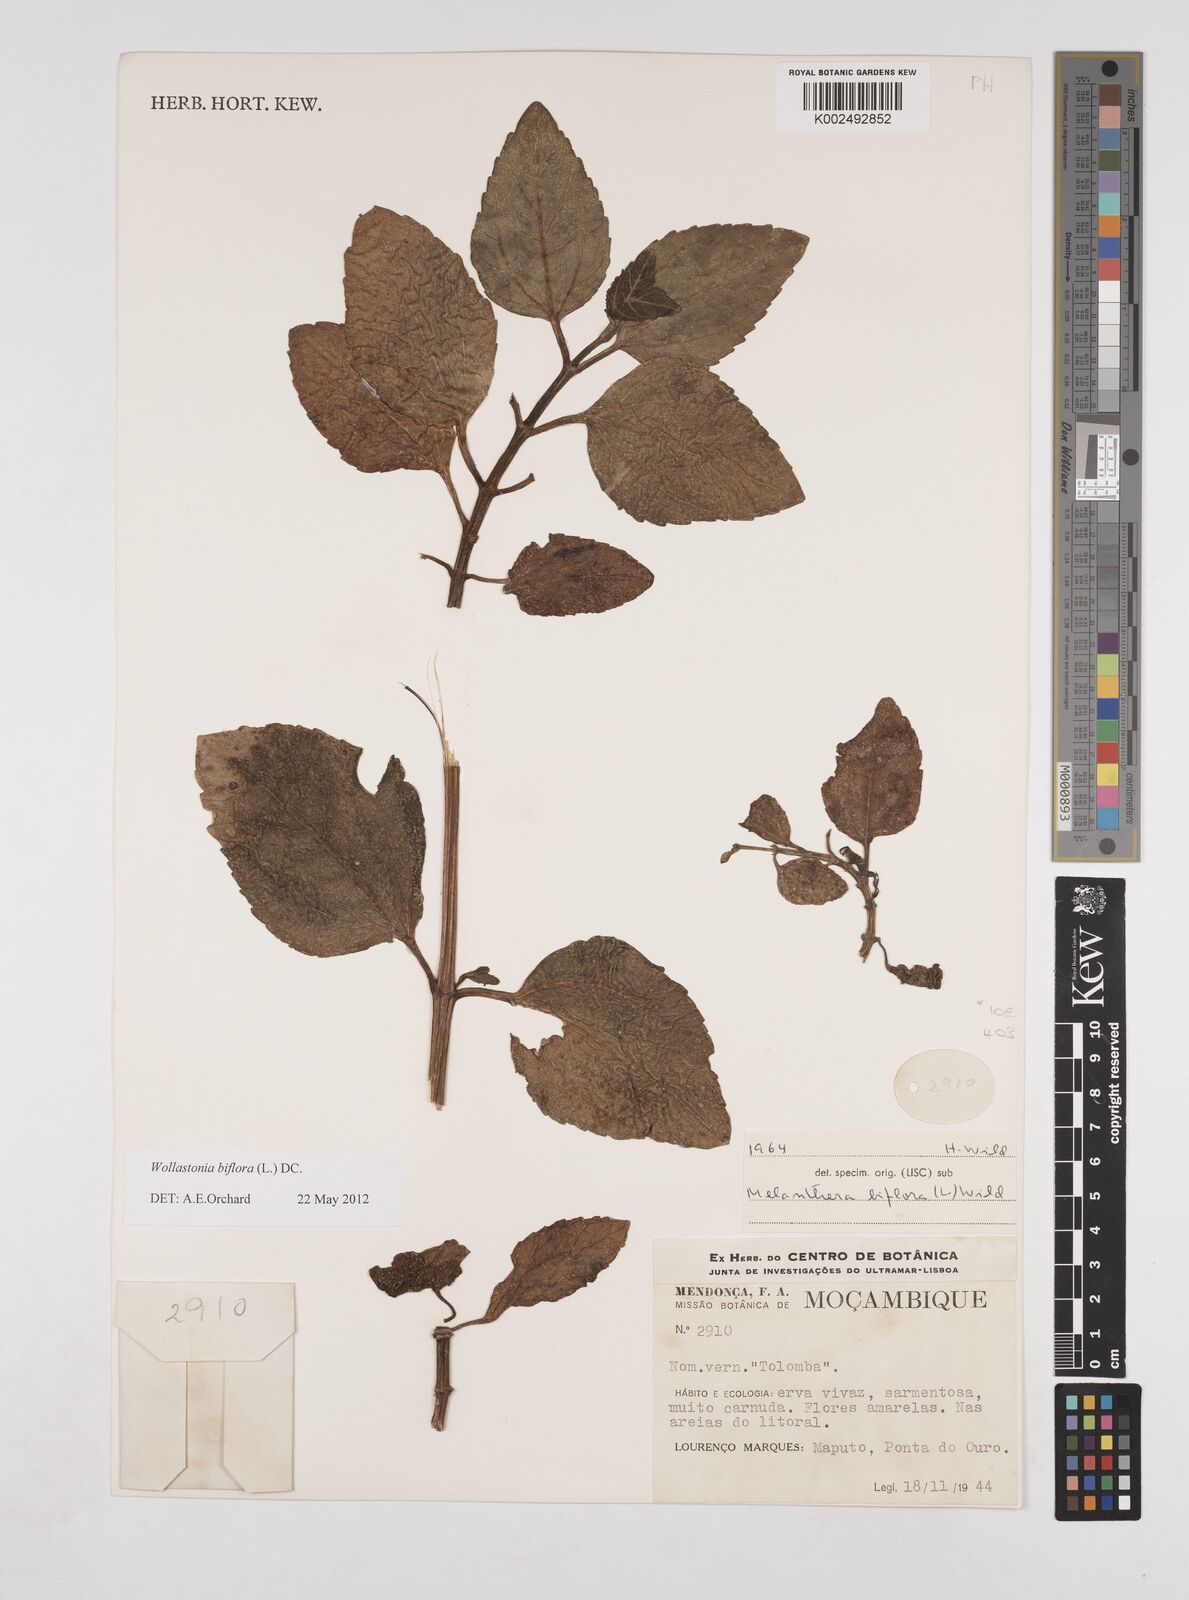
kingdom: Plantae
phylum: Tracheophyta
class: Magnoliopsida
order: Asterales
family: Asteraceae
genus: Wollastonia
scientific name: Wollastonia biflora
